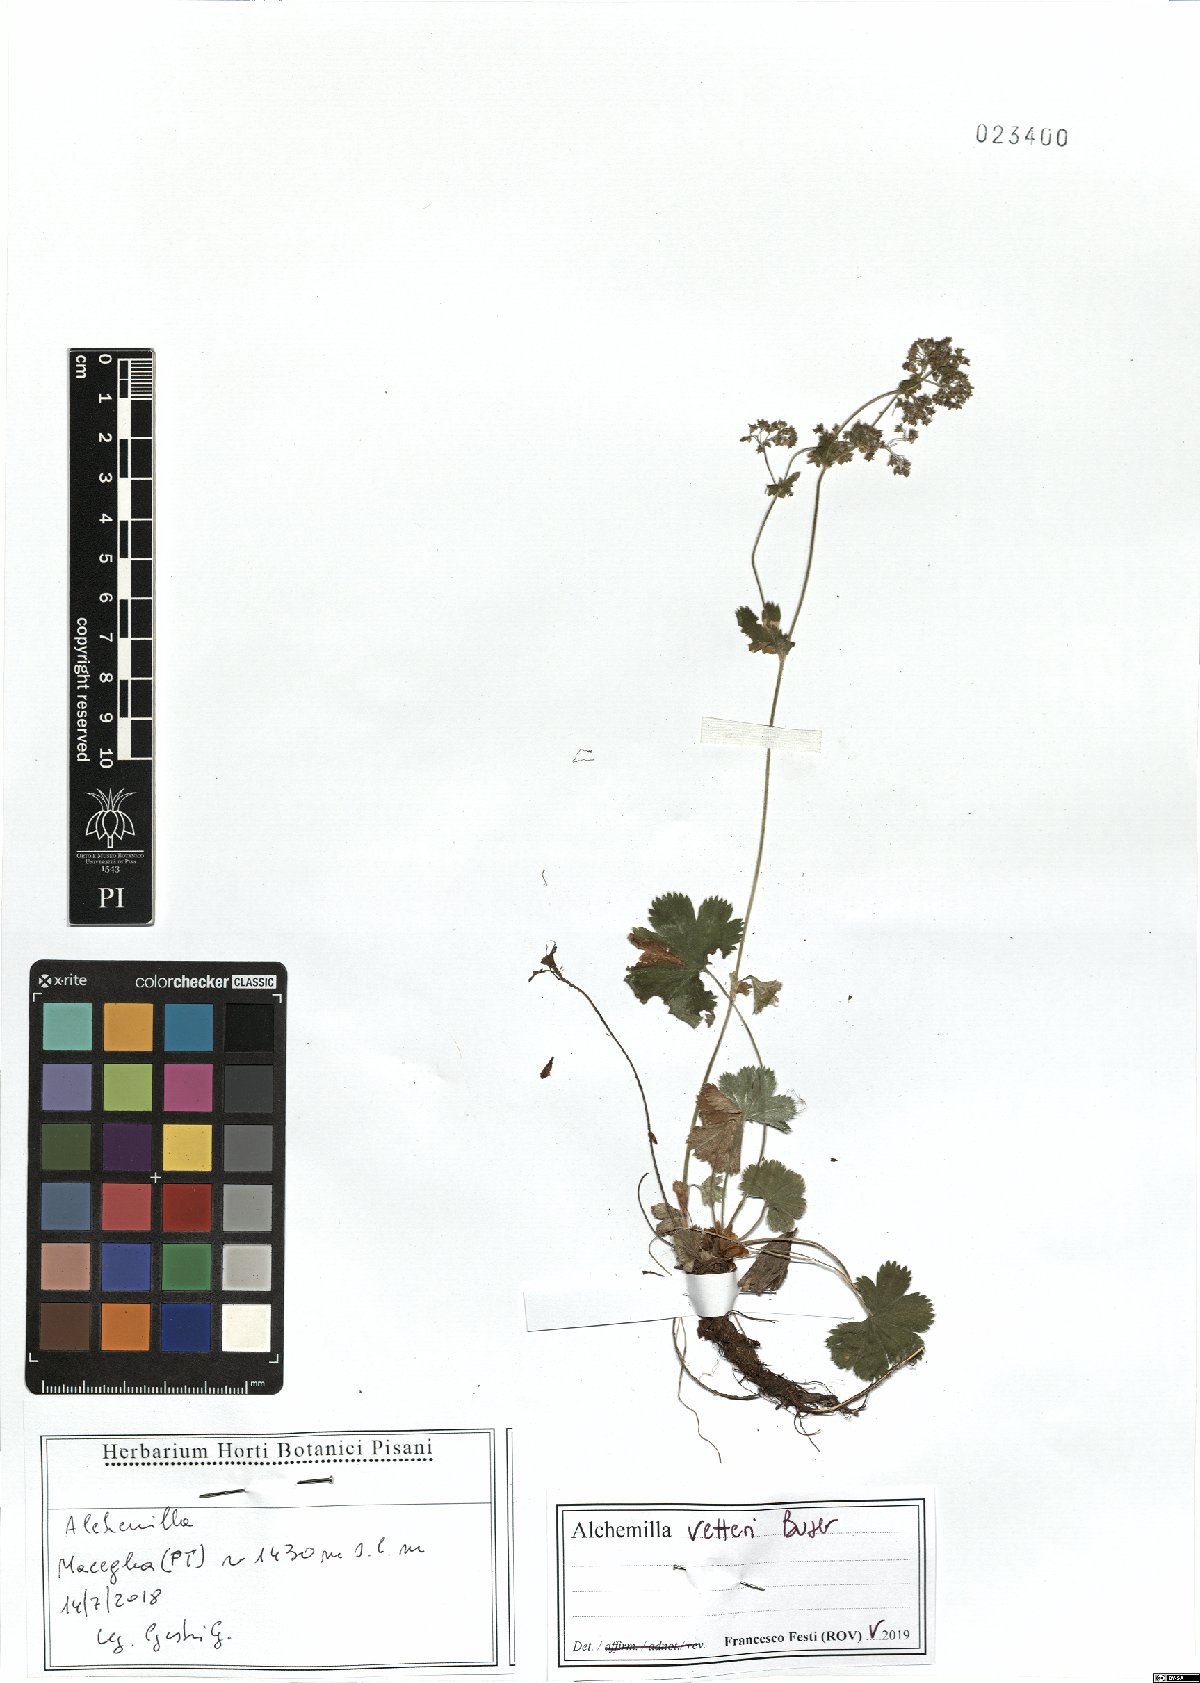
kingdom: Plantae
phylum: Tracheophyta
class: Magnoliopsida
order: Rosales
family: Rosaceae
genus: Alchemilla
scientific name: Alchemilla vetteri
